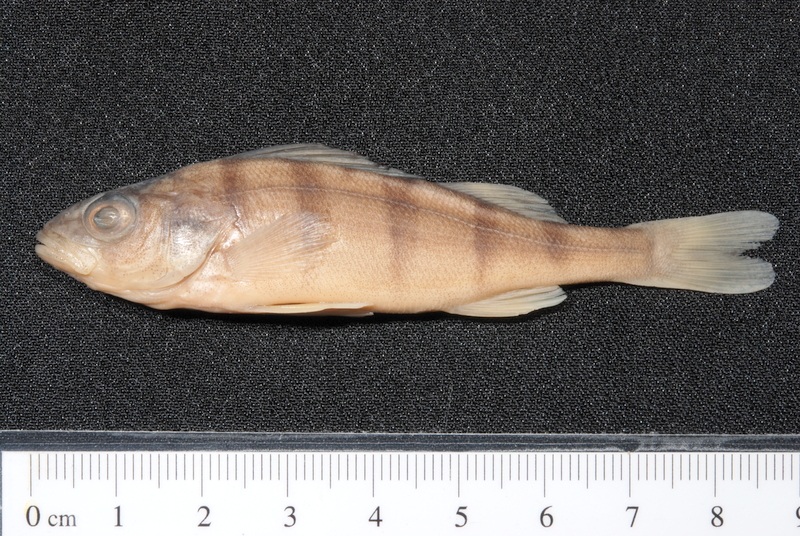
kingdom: Animalia
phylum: Chordata
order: Perciformes
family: Percidae
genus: Perca
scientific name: Perca fluviatilis
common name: Perch
